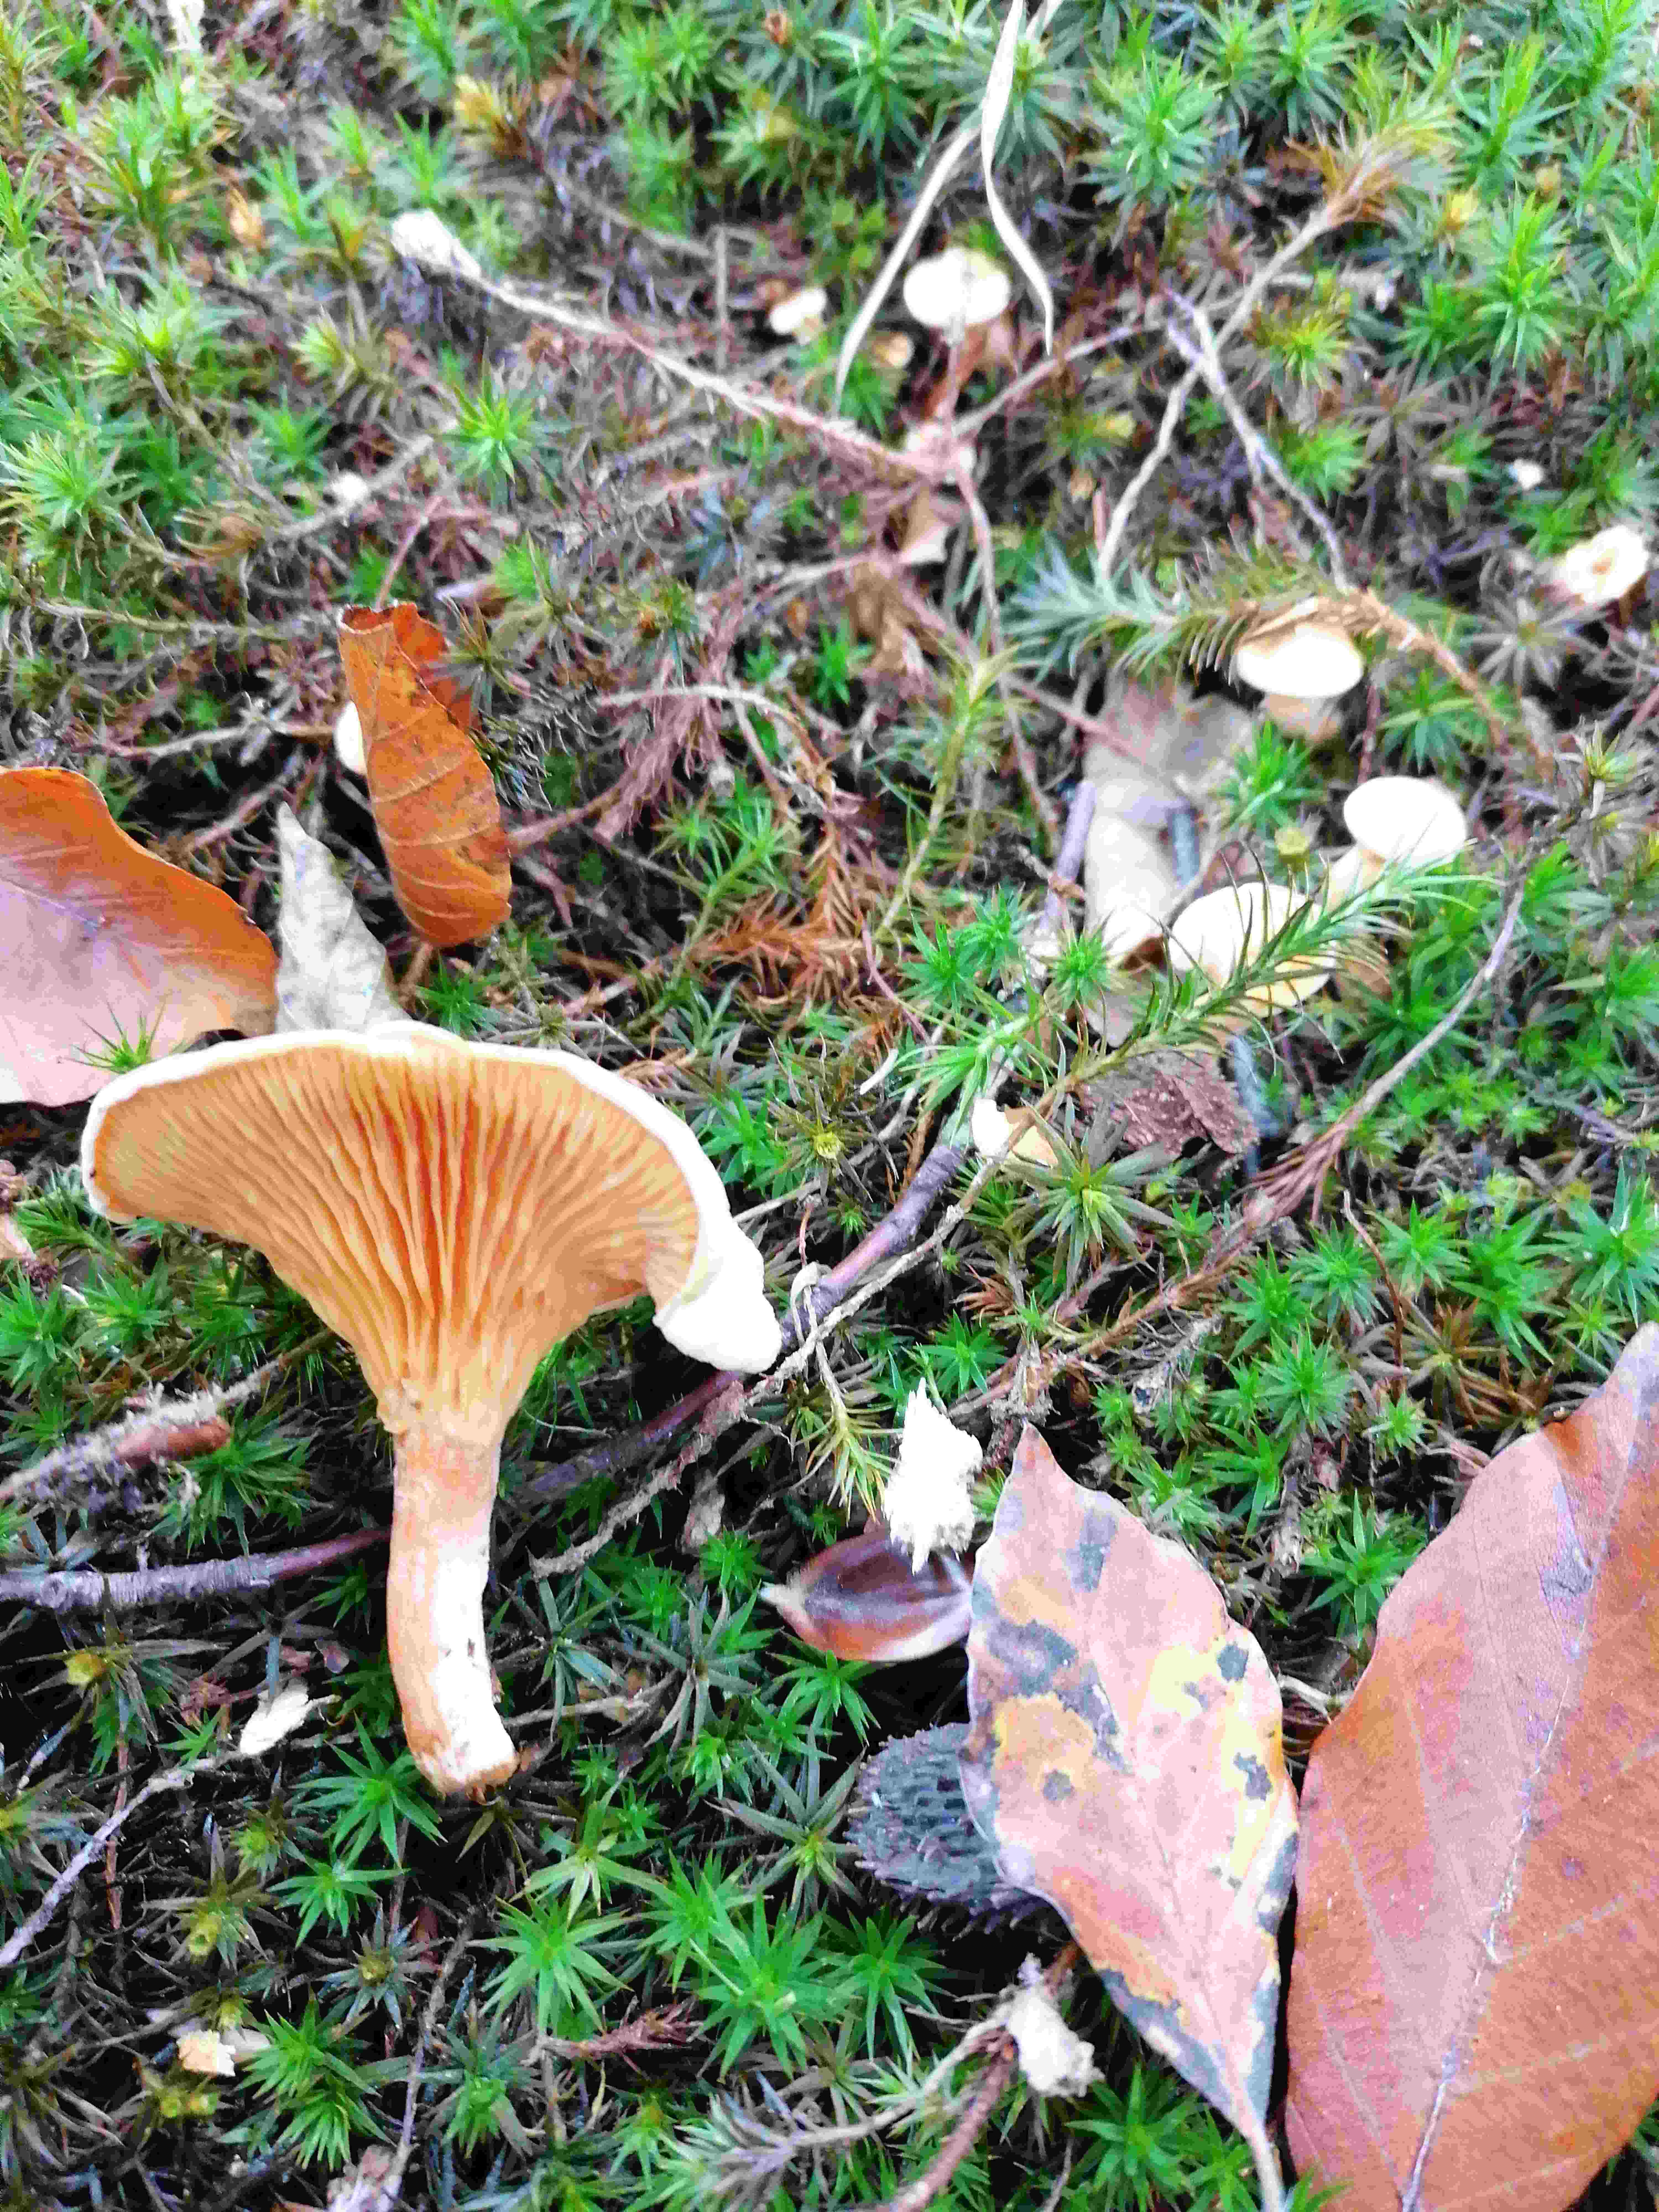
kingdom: Fungi
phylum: Basidiomycota
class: Agaricomycetes
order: Boletales
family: Hygrophoropsidaceae
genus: Hygrophoropsis
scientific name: Hygrophoropsis aurantiaca
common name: almindelig orangekantarel
